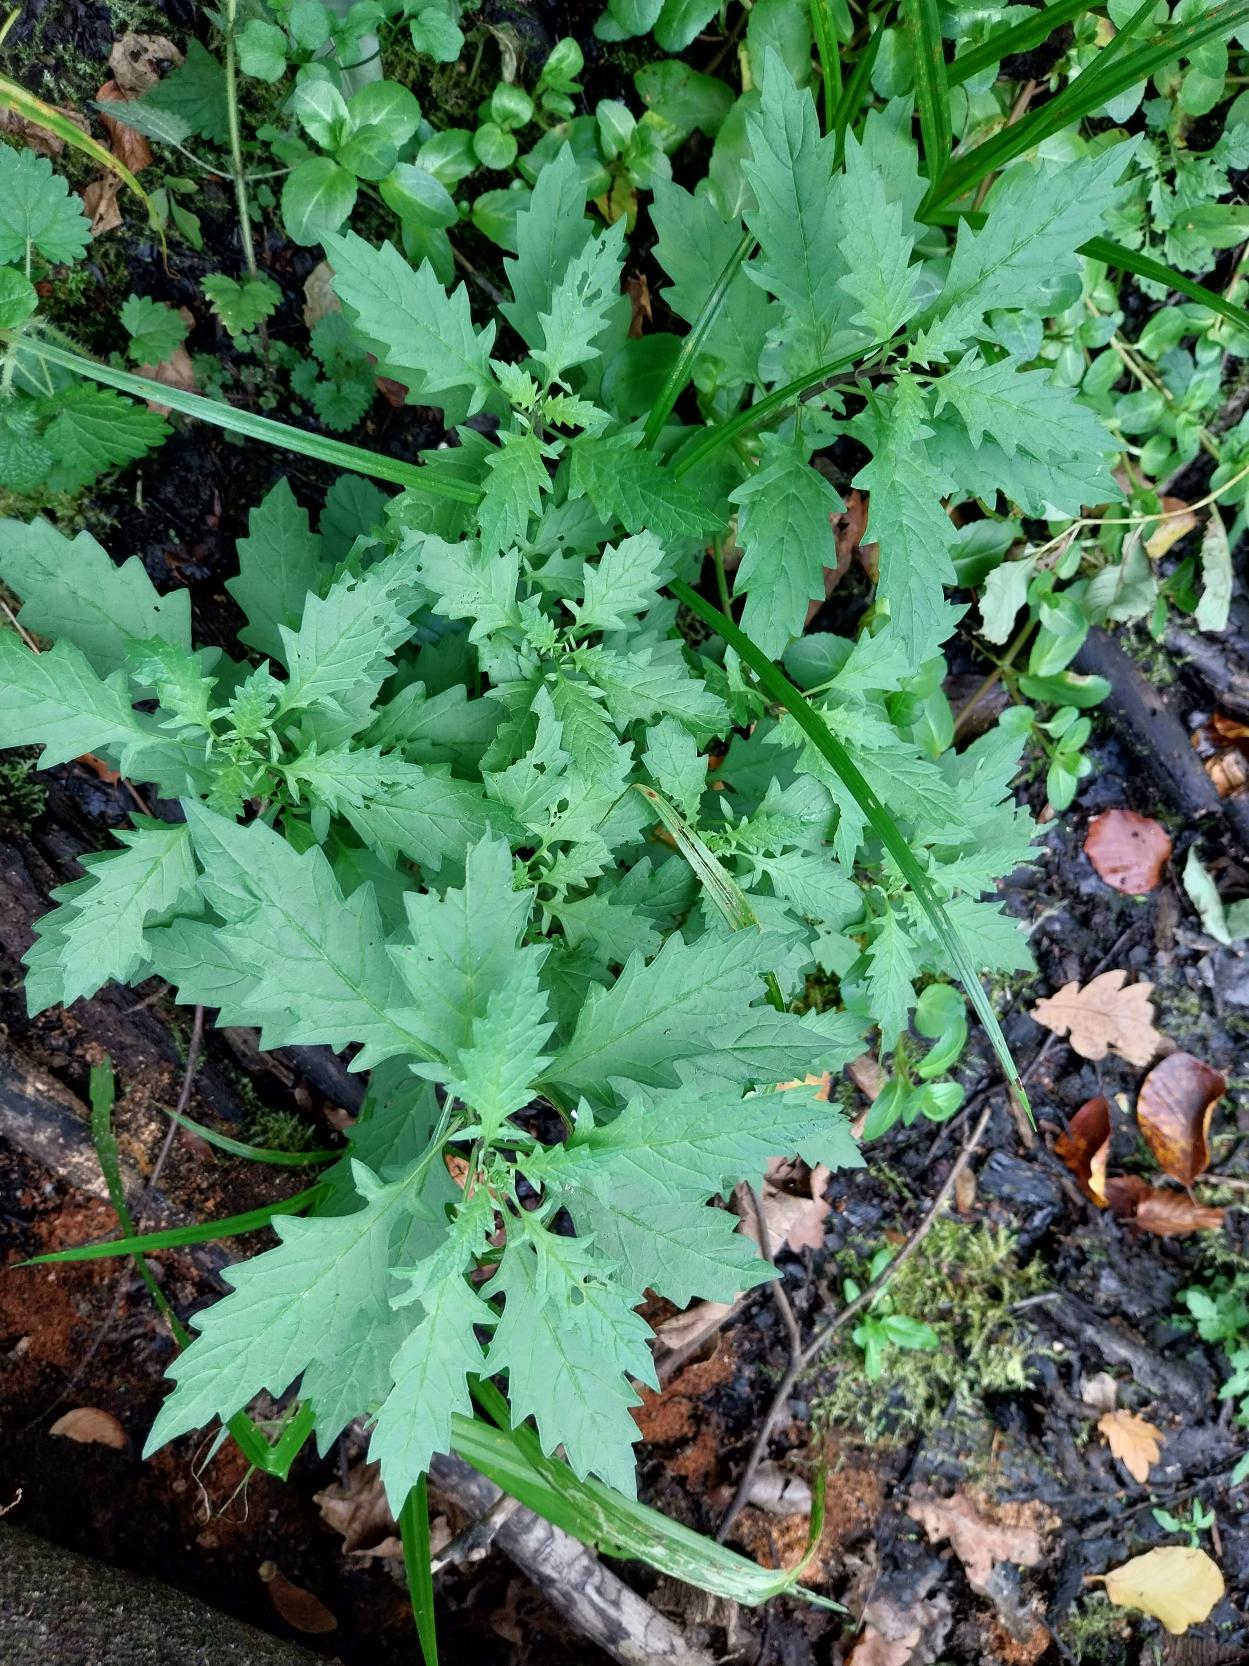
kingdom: Plantae
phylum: Tracheophyta
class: Magnoliopsida
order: Lamiales
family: Lamiaceae
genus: Lycopus
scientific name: Lycopus europaeus
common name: Sværtevæld
